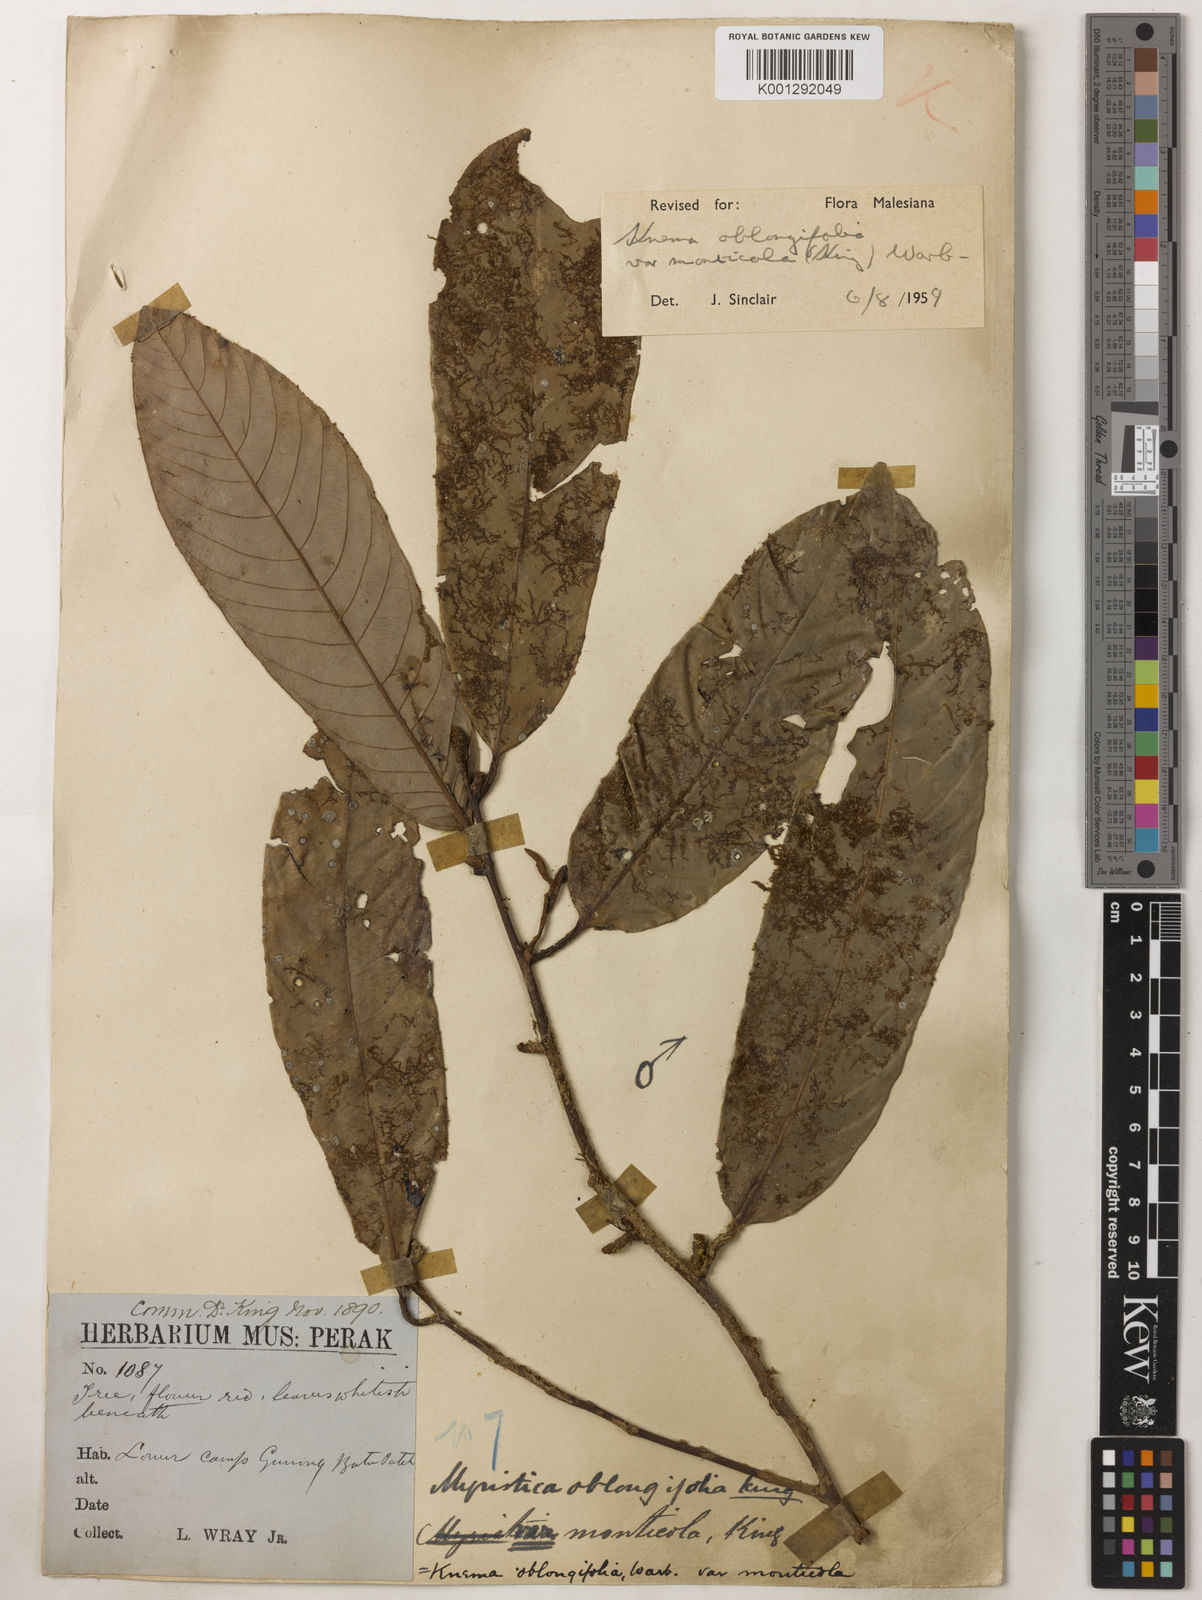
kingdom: Plantae
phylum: Tracheophyta
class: Magnoliopsida
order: Magnoliales
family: Myristicaceae
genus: Knema
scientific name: Knema
